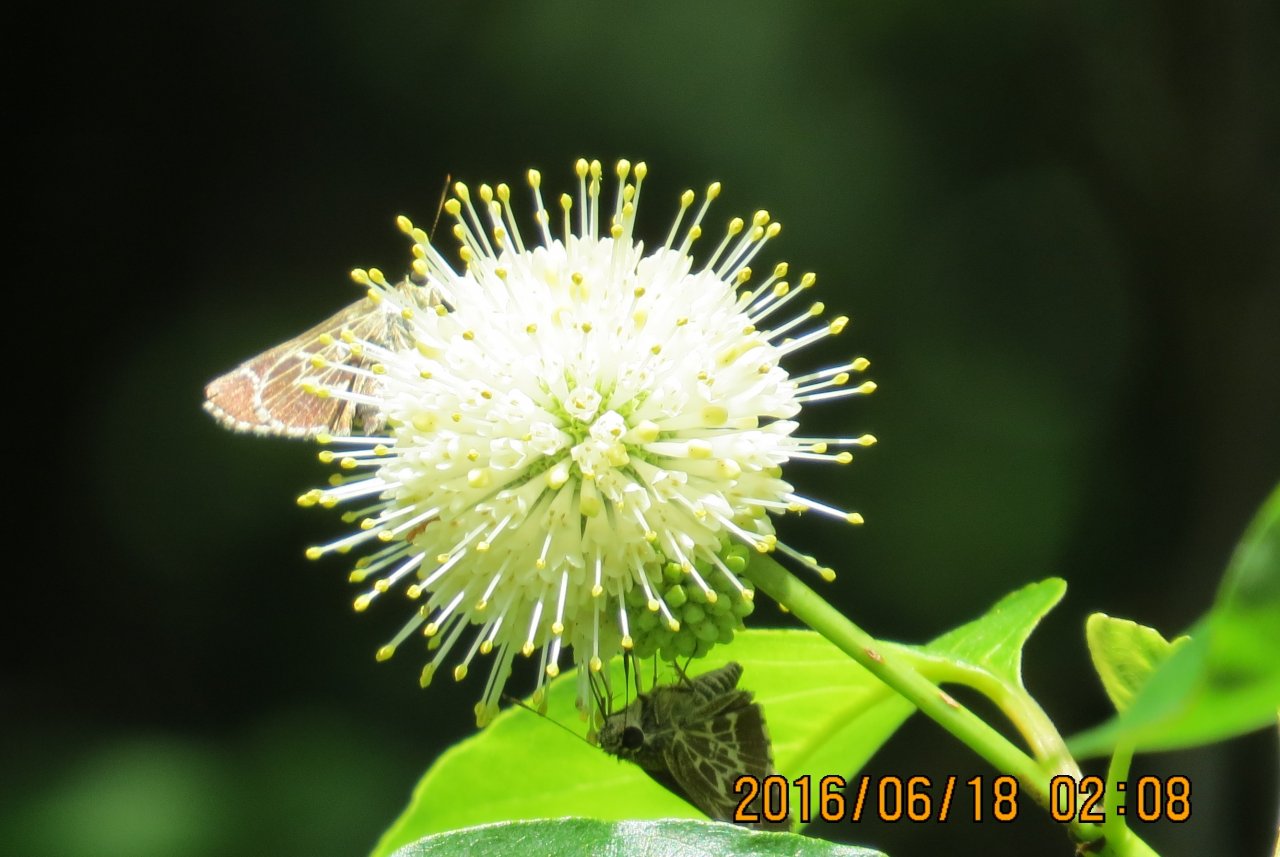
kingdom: Animalia
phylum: Arthropoda
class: Insecta
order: Lepidoptera
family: Hesperiidae
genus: Mastor
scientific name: Mastor aesculapius
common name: Lace-winged Roadside-Skipper
